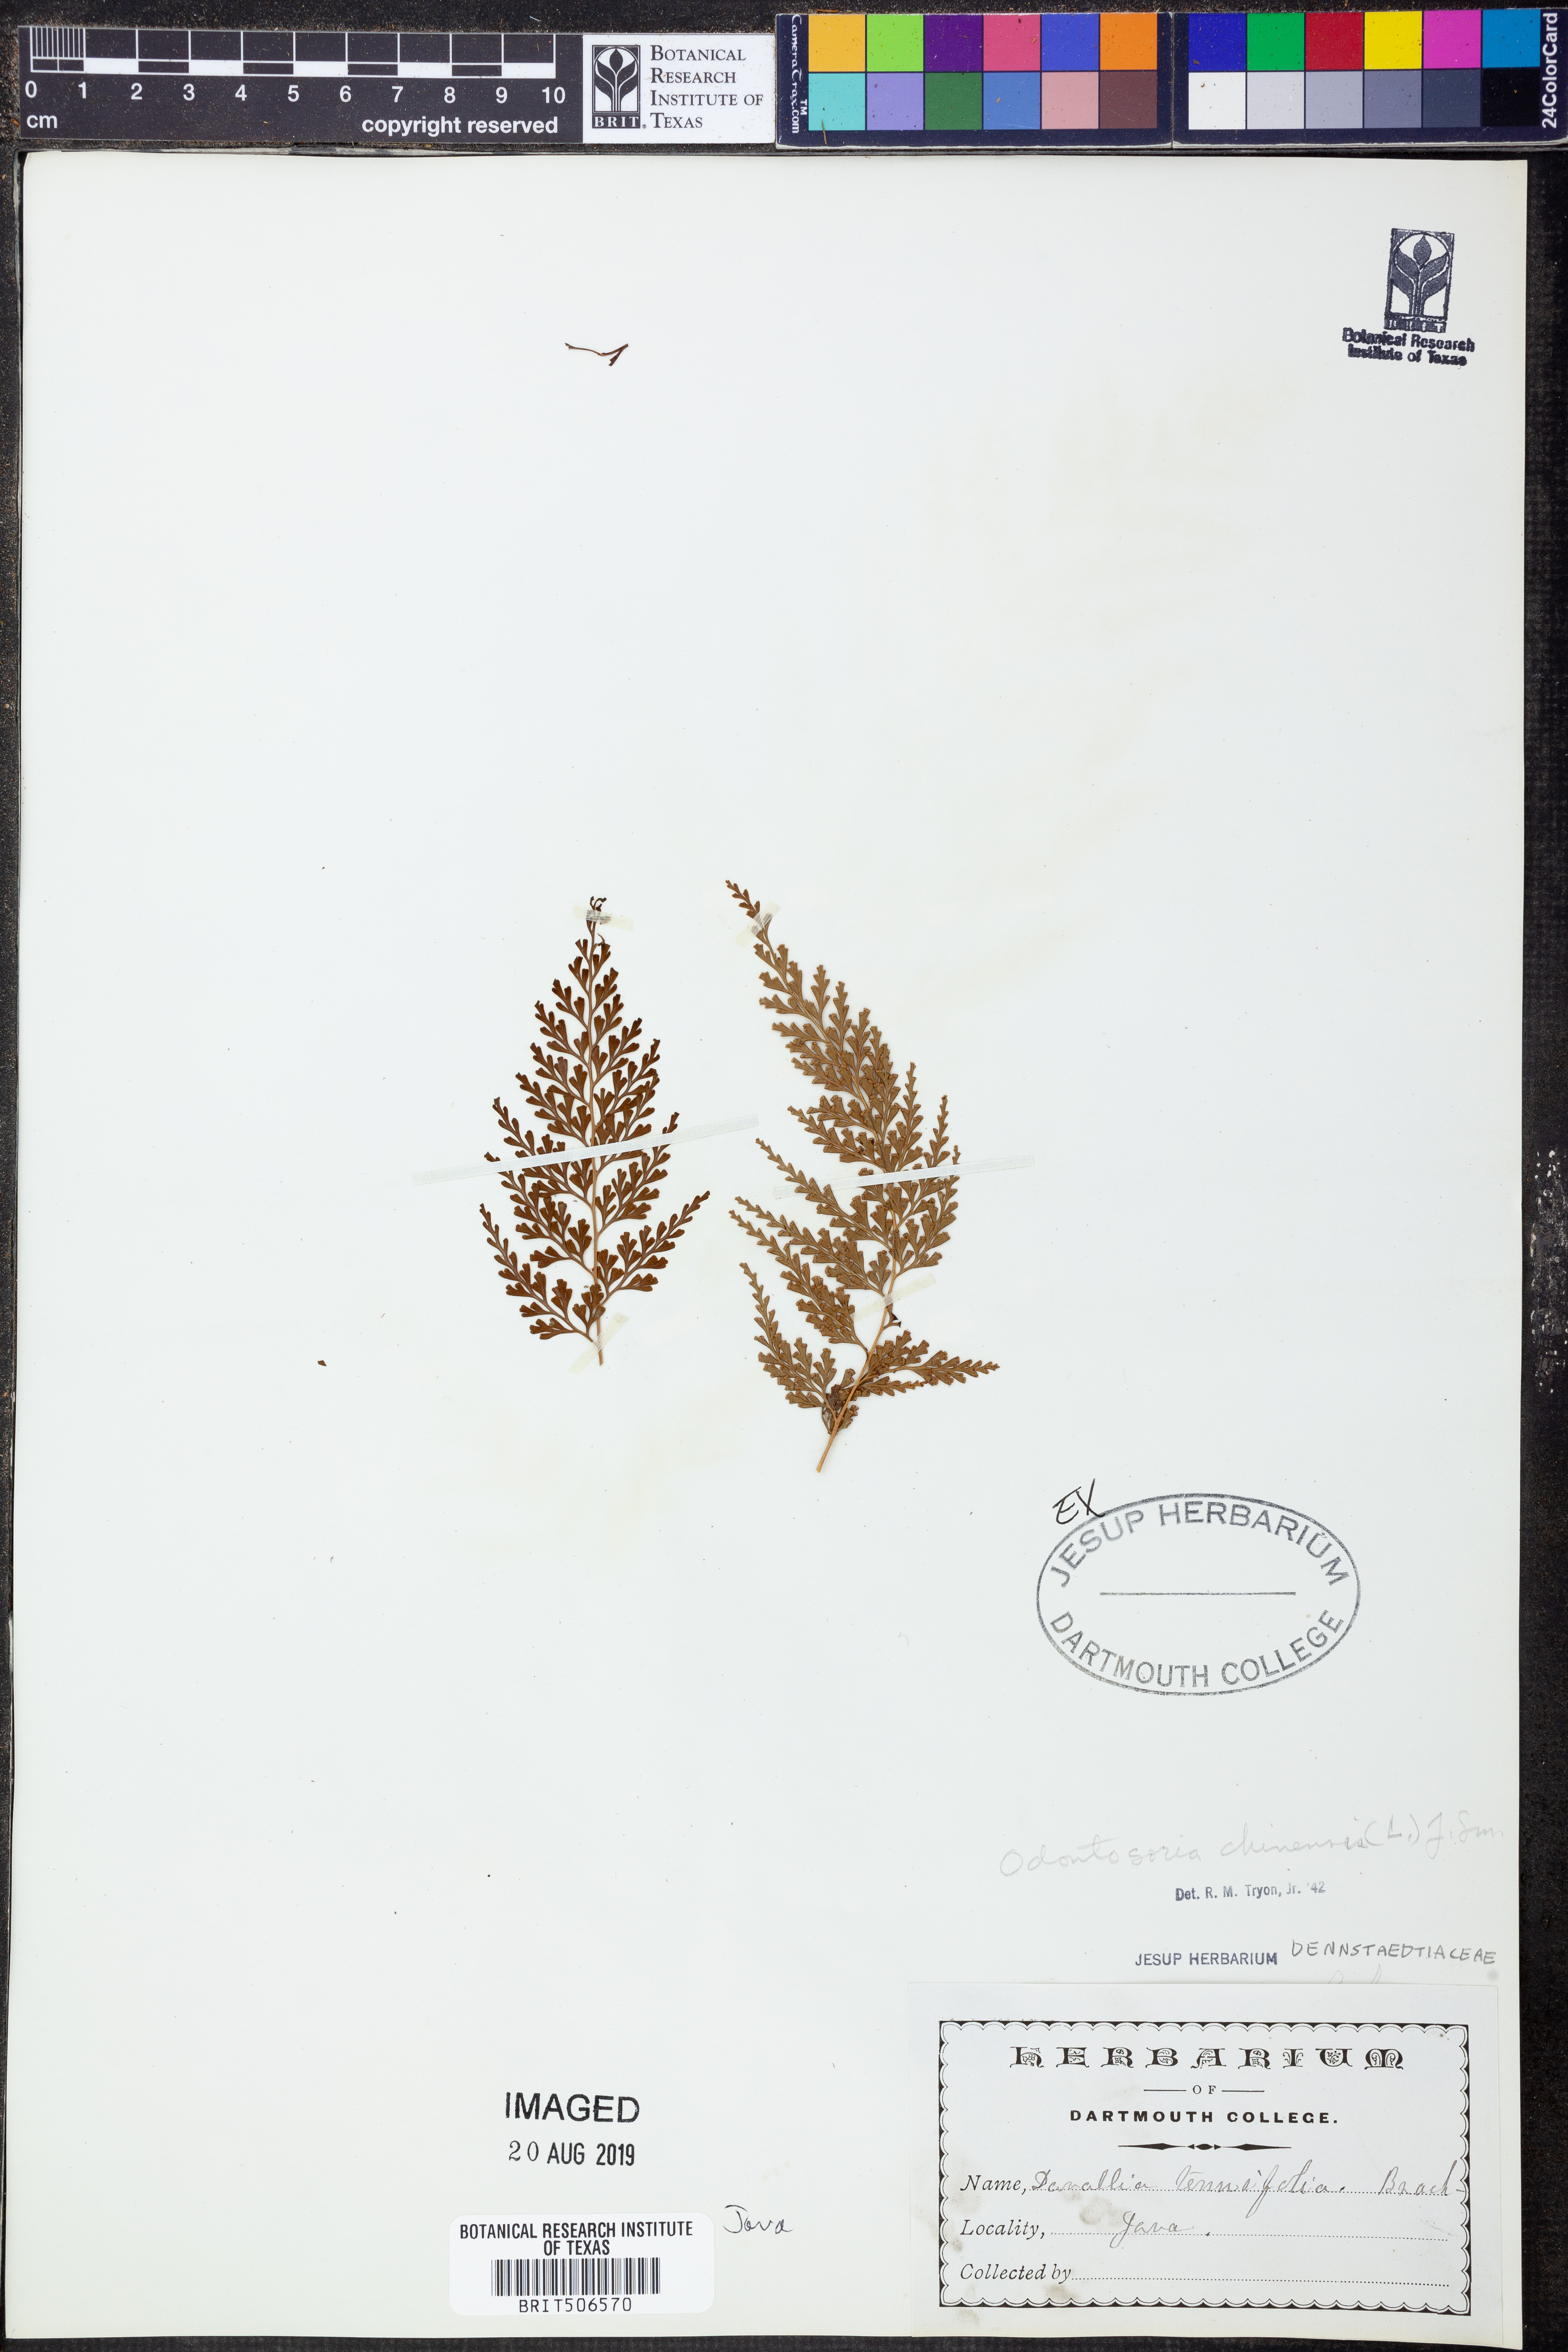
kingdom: Plantae
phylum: Tracheophyta
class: Polypodiopsida
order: Polypodiales
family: Lindsaeaceae
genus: Odontosoria
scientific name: Odontosoria chinensis
